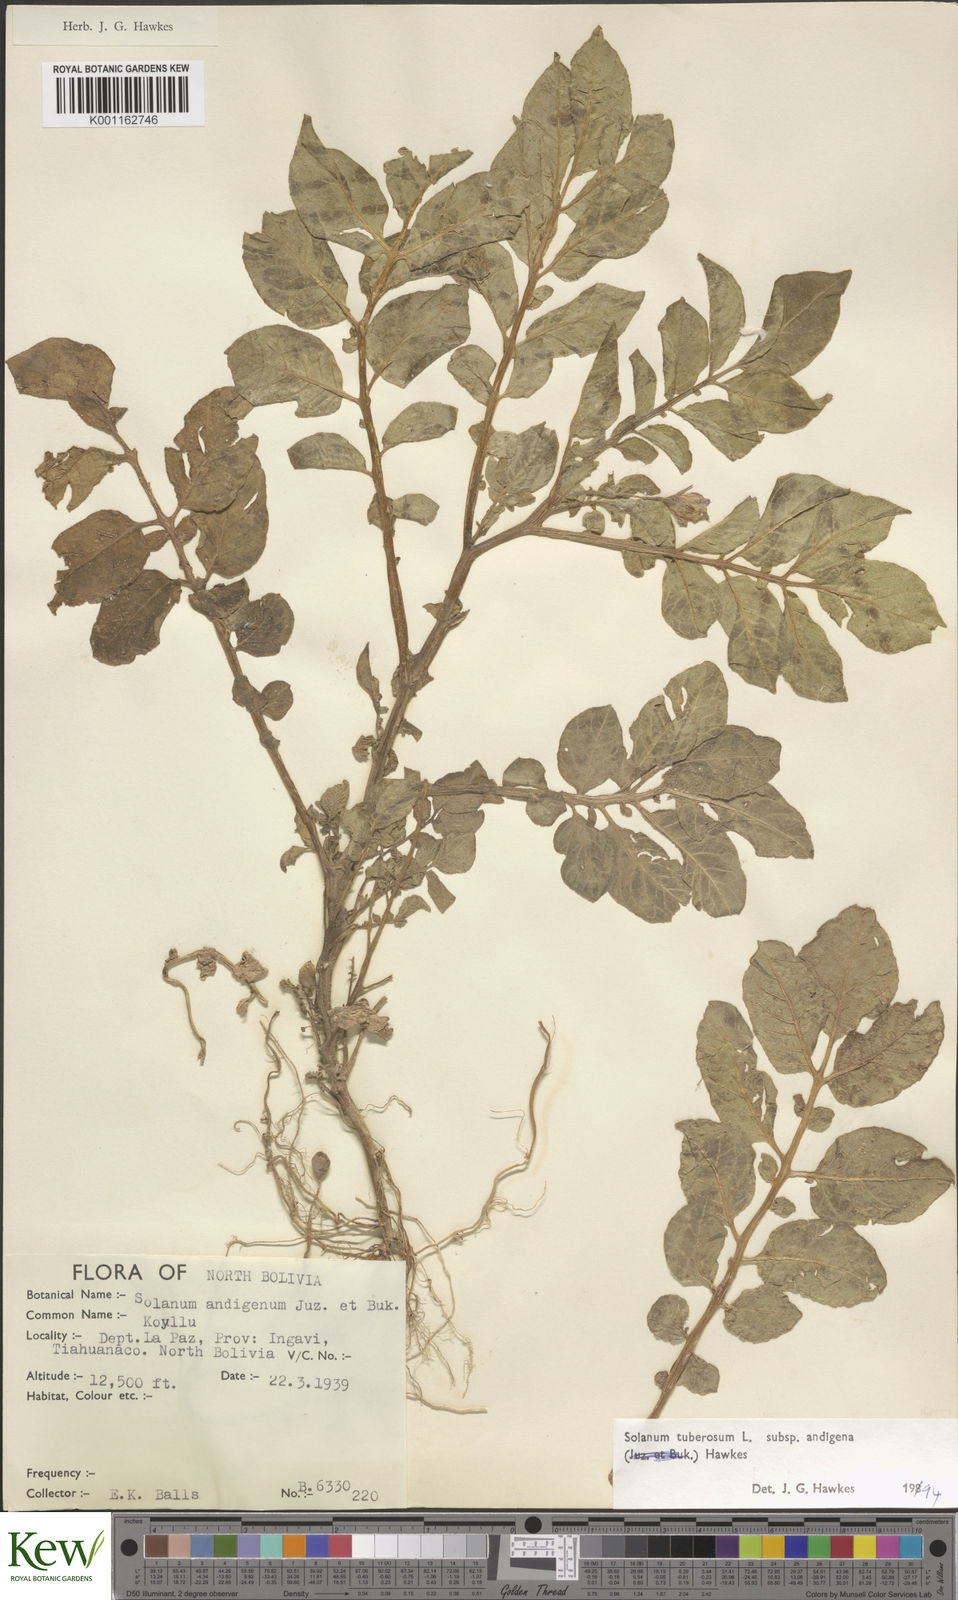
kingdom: Plantae
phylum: Tracheophyta
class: Magnoliopsida
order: Solanales
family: Solanaceae
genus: Solanum
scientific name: Solanum tuberosum
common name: Potato
